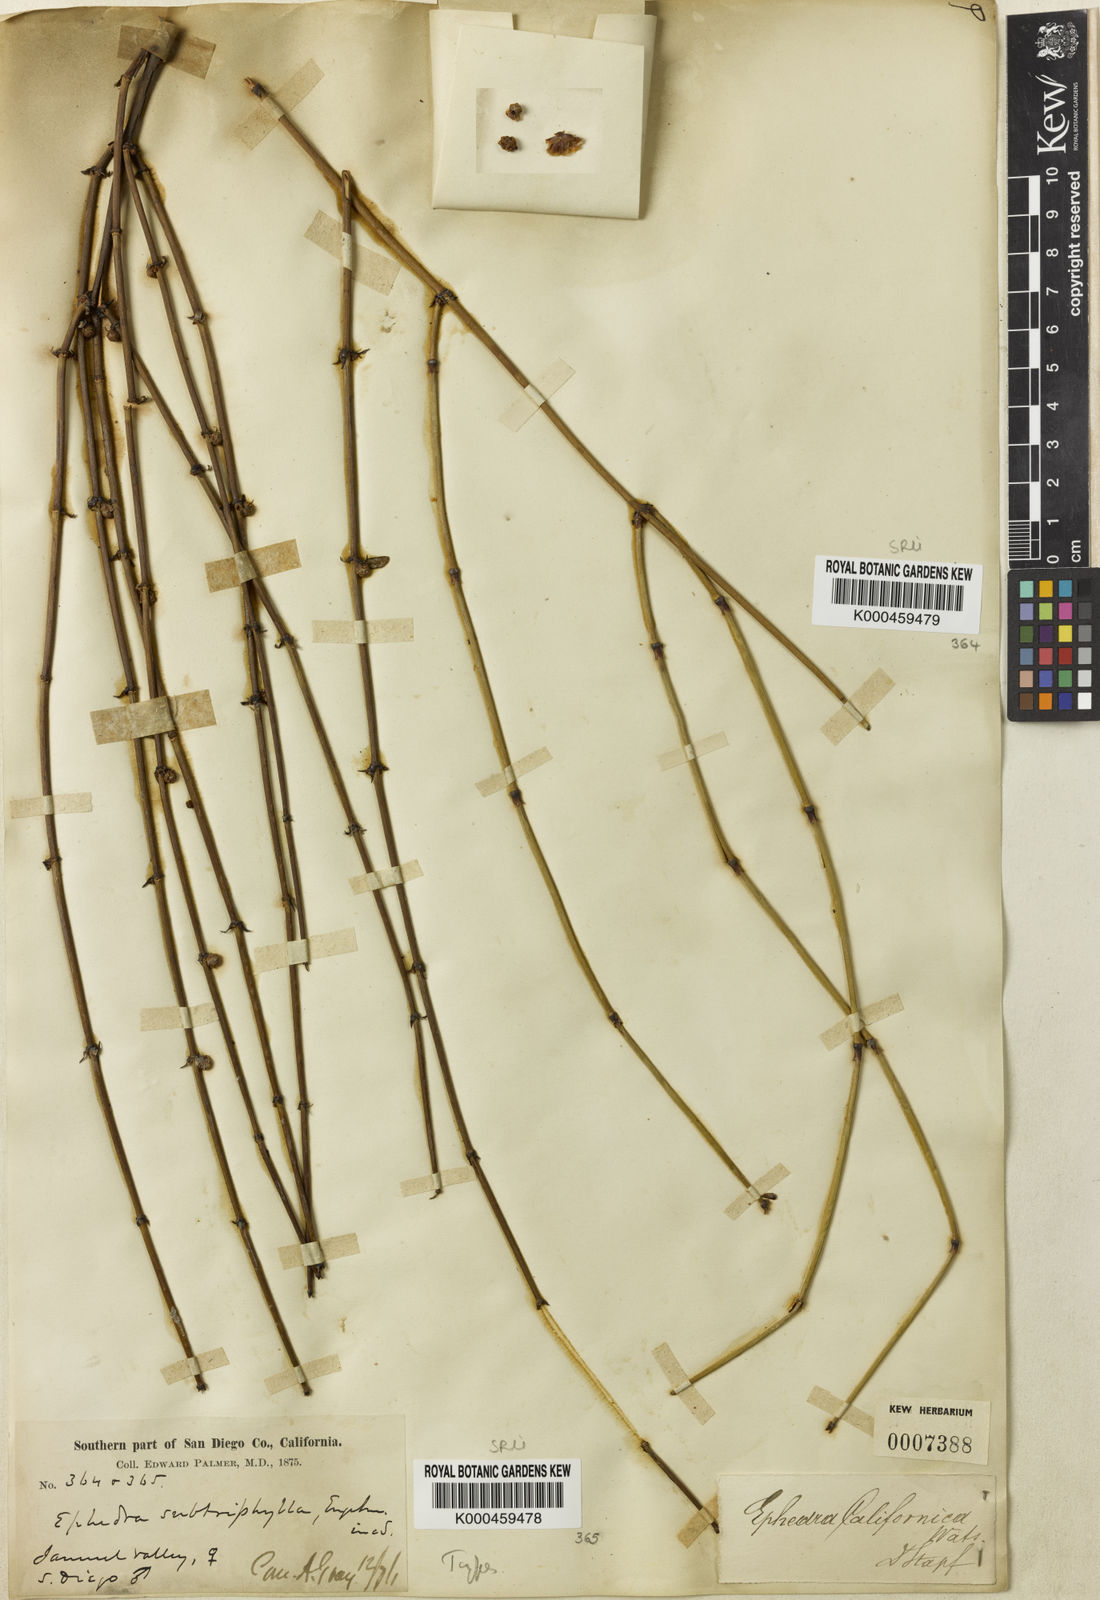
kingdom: Plantae
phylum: Tracheophyta
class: Gnetopsida
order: Ephedrales
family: Ephedraceae
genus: Ephedra
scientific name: Ephedra californica
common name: California ephedra
